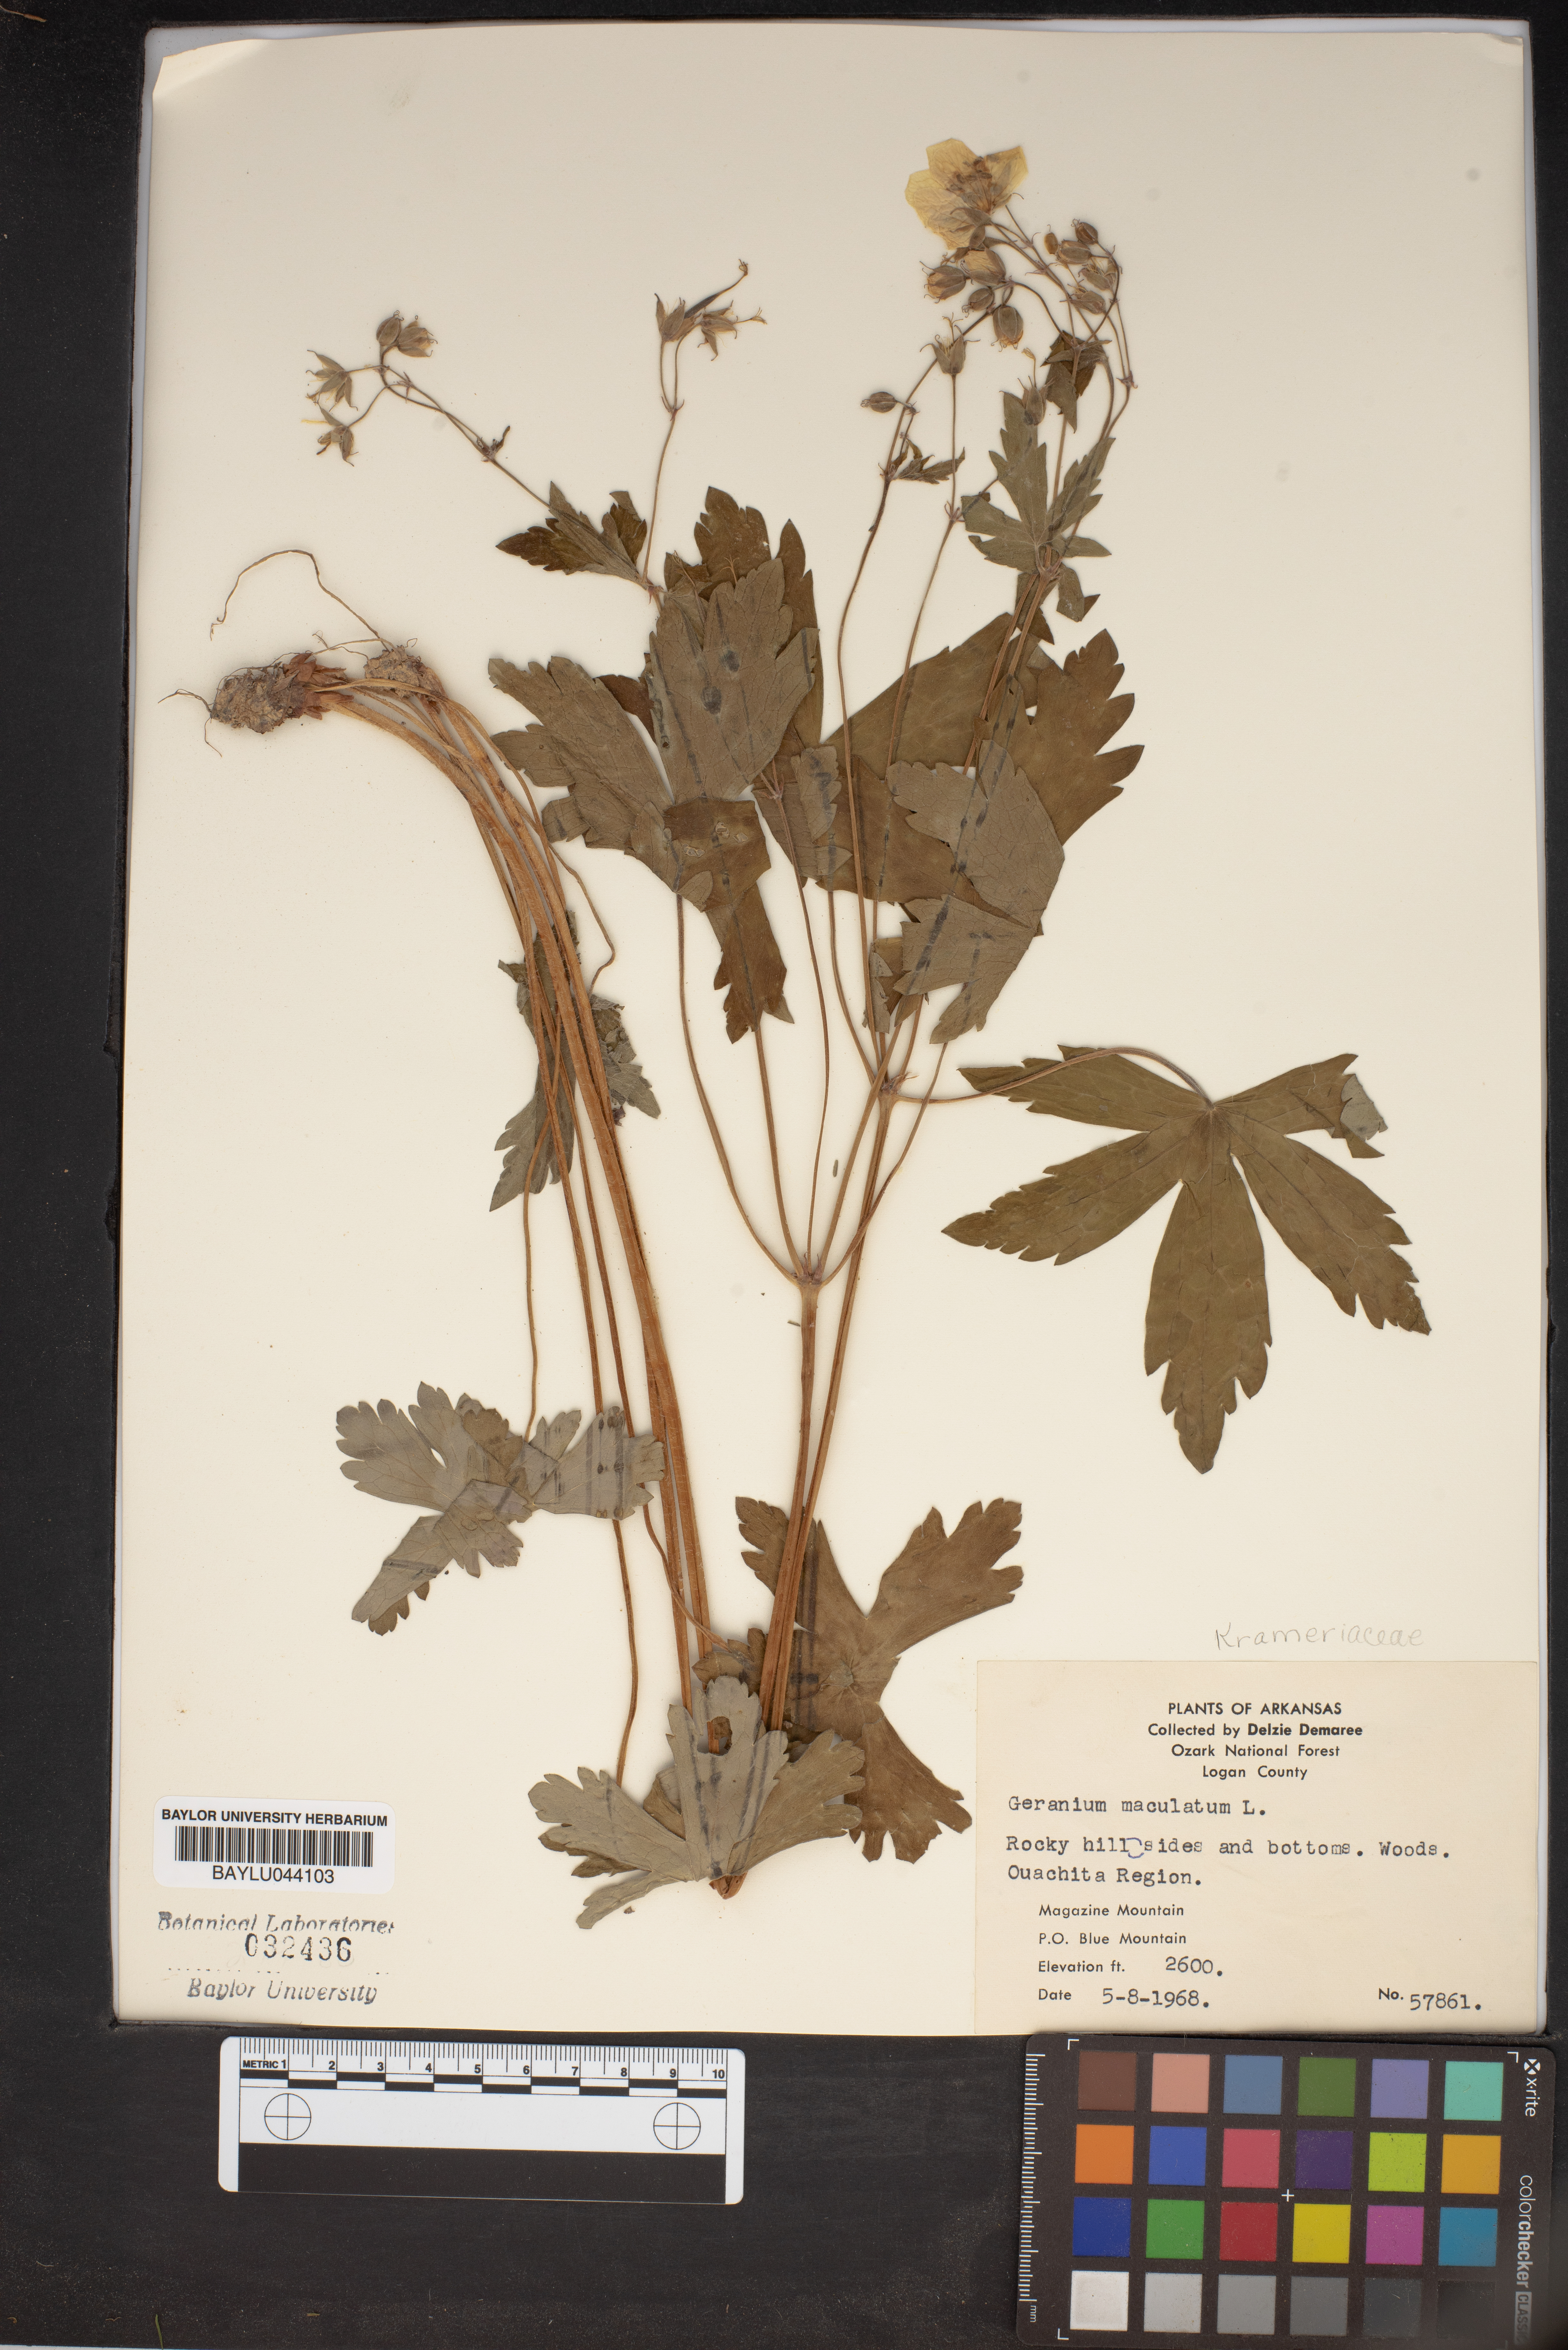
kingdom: Plantae
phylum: Tracheophyta
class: Magnoliopsida
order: Geraniales
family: Geraniaceae
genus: Geranium
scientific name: Geranium maculatum
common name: Spotted geranium
